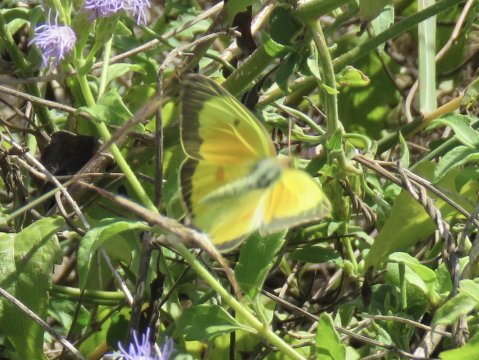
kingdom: Animalia
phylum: Arthropoda
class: Insecta
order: Lepidoptera
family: Pieridae
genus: Colias
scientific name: Colias eurytheme
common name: Orange Sulphur
